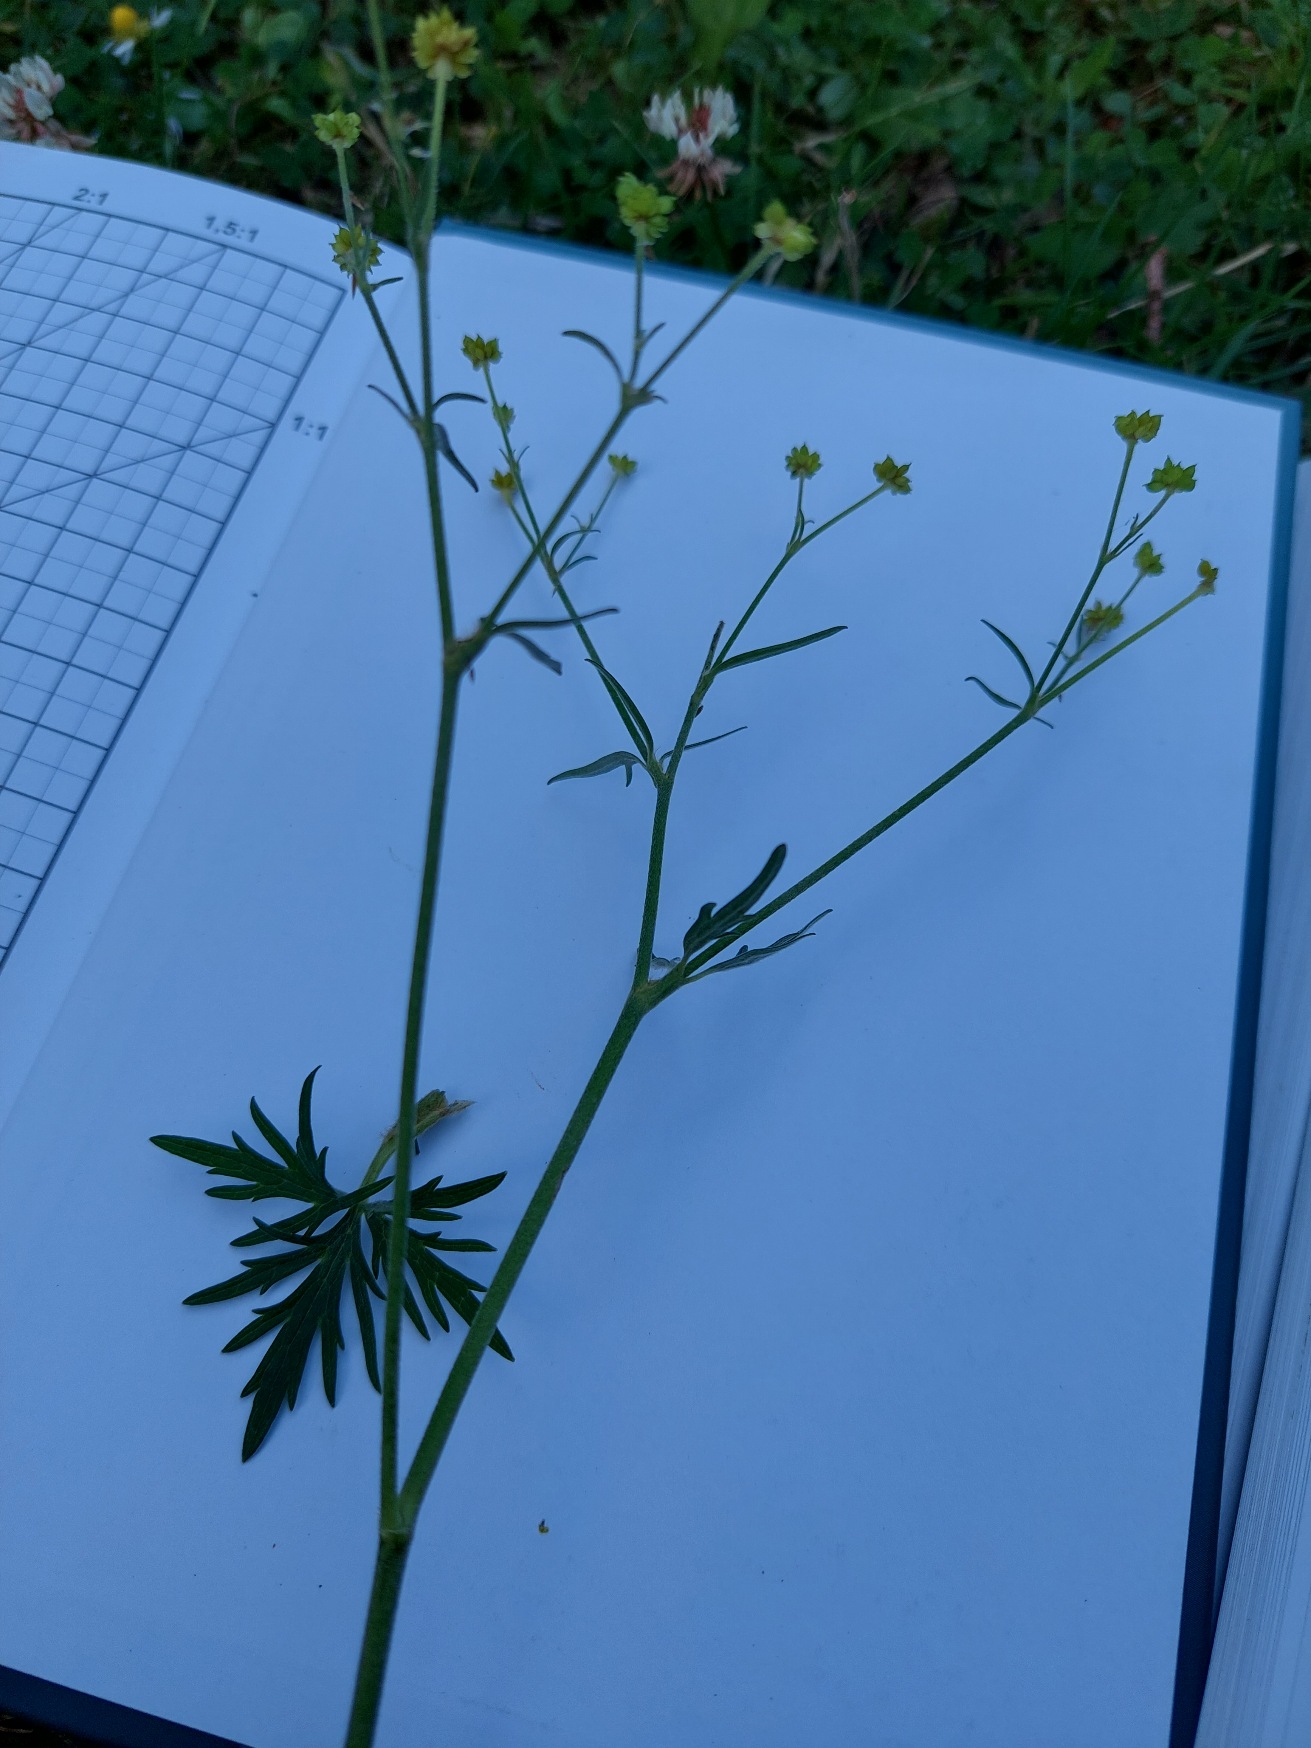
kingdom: Plantae
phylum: Tracheophyta
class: Magnoliopsida
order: Ranunculales
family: Ranunculaceae
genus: Ranunculus
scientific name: Ranunculus acris
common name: Bidende ranunkel
